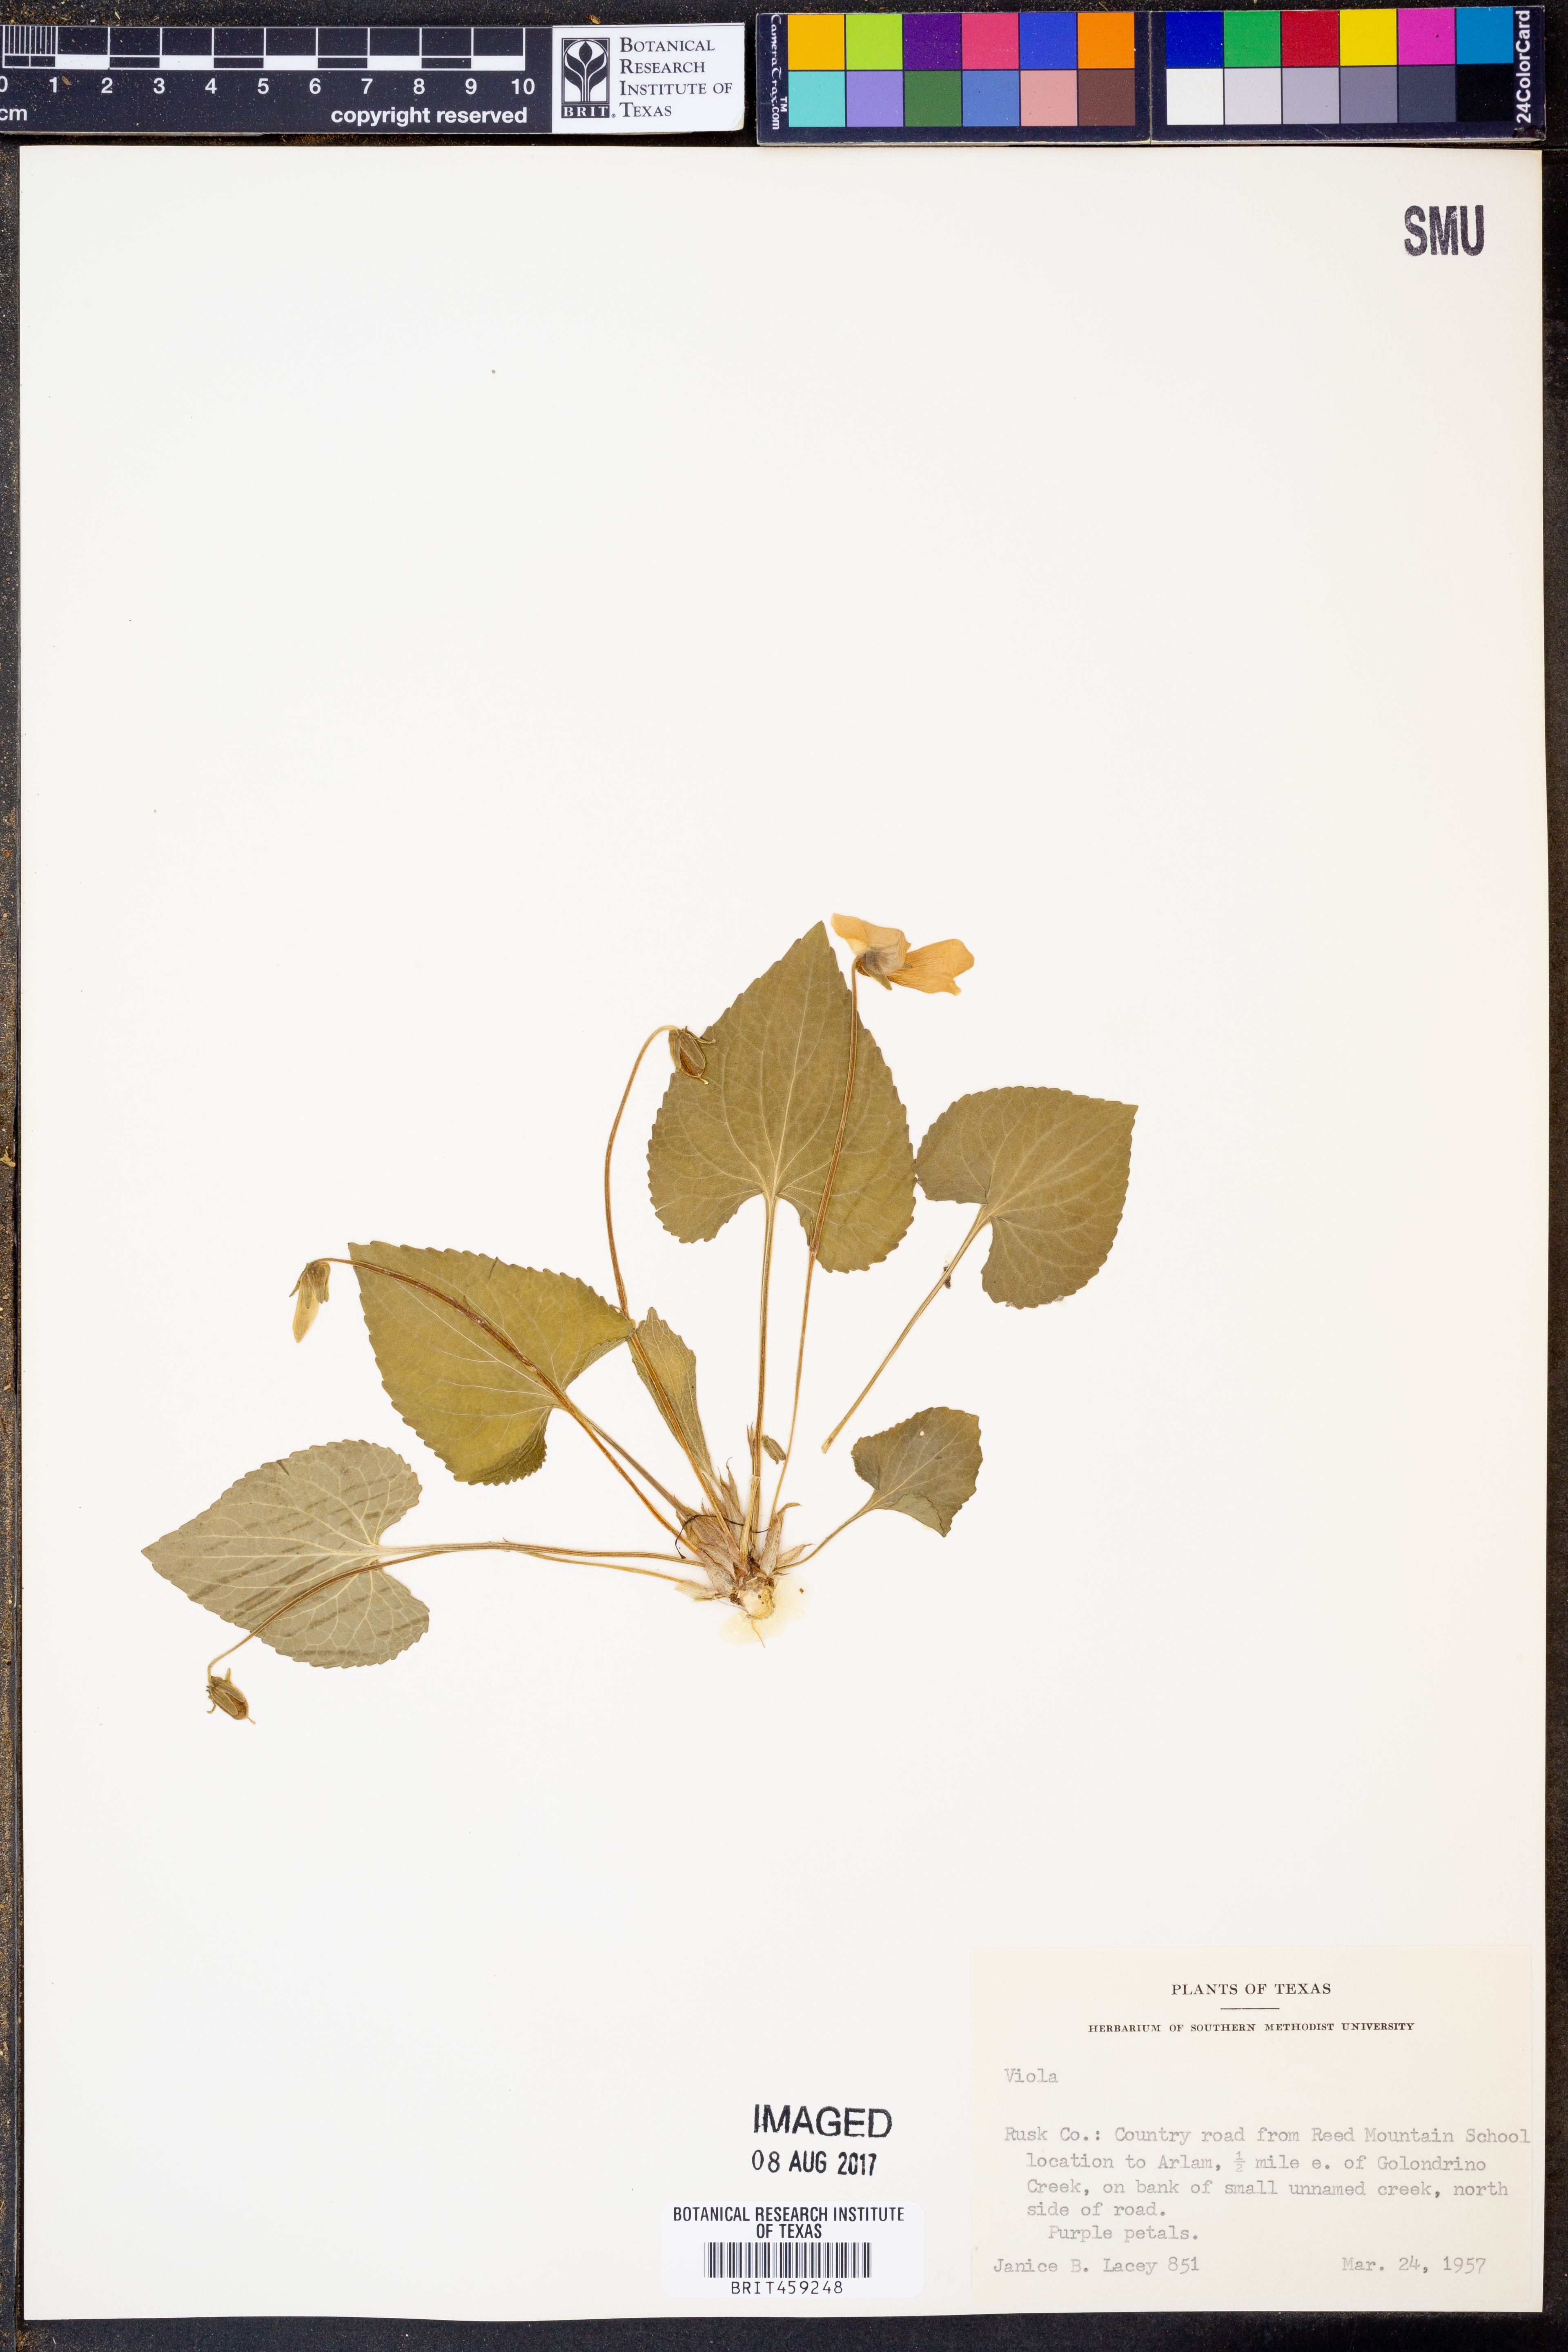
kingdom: Plantae
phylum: Tracheophyta
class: Magnoliopsida
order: Malpighiales
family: Violaceae
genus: Viola
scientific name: Viola
